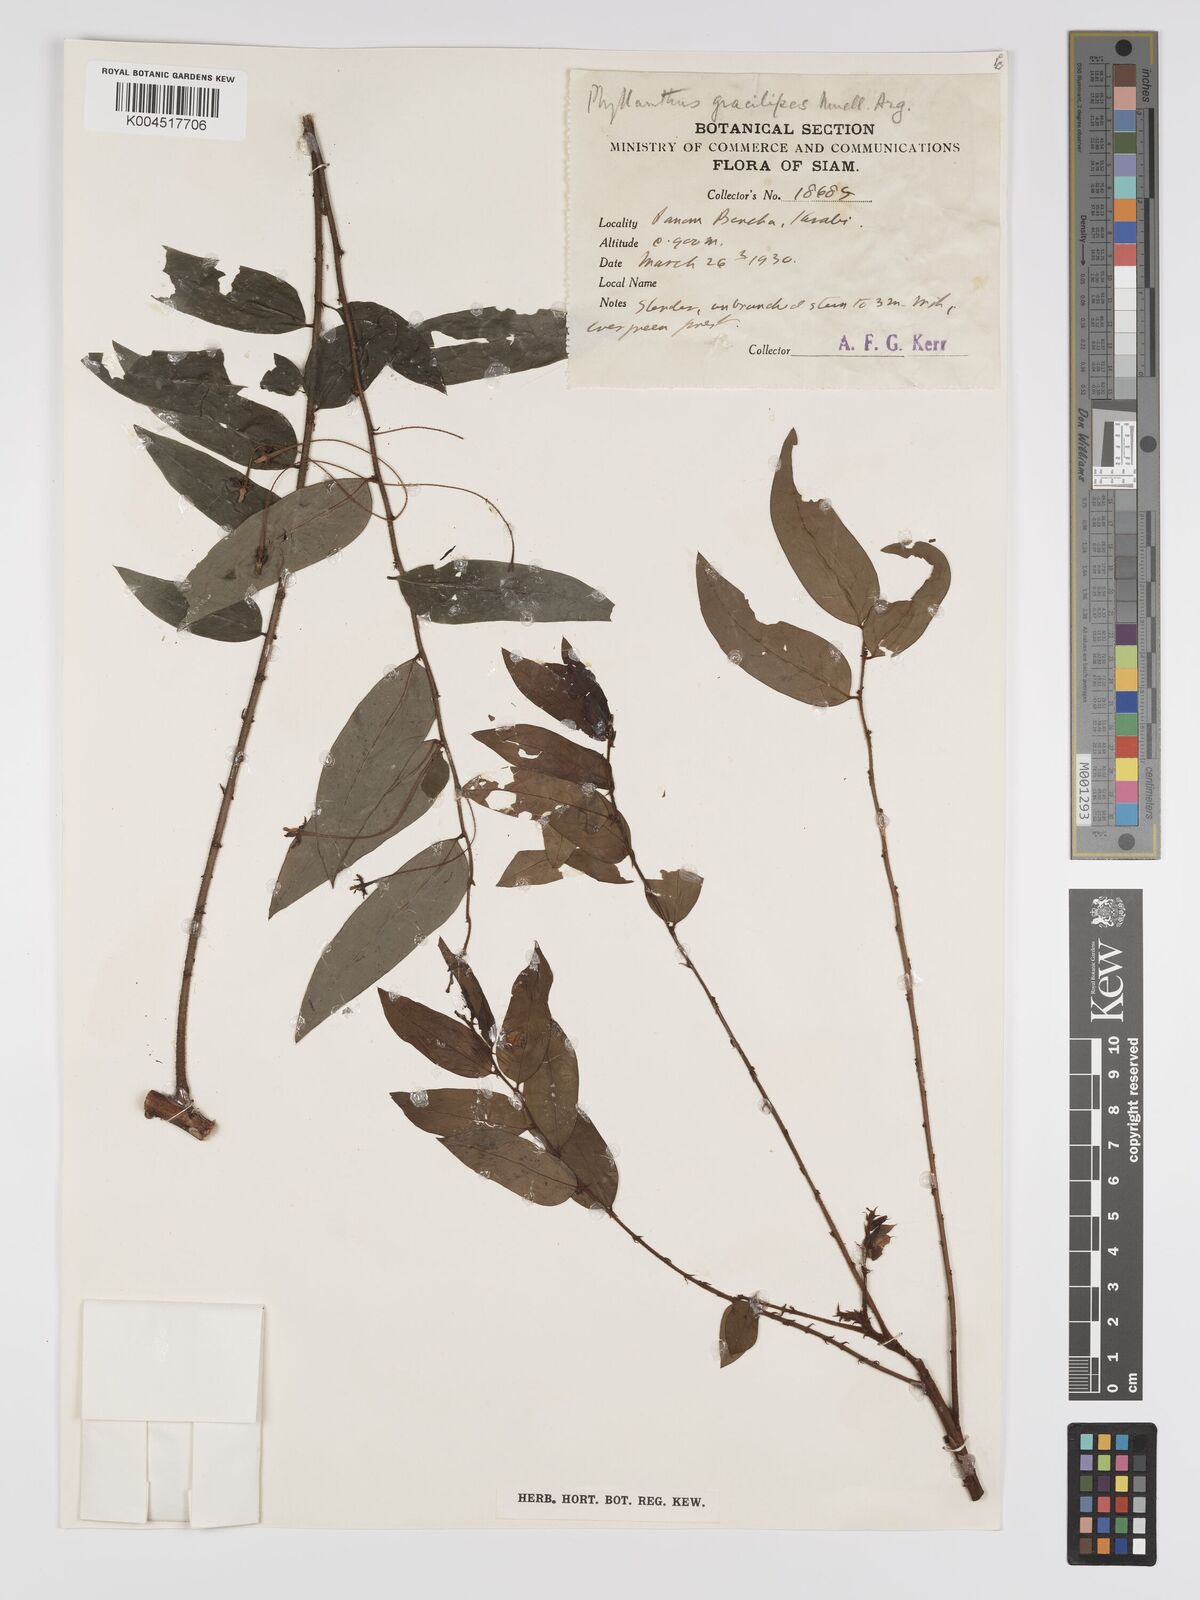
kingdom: Plantae
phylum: Tracheophyta
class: Magnoliopsida
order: Malpighiales
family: Phyllanthaceae
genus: Phyllanthus
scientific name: Phyllanthus
